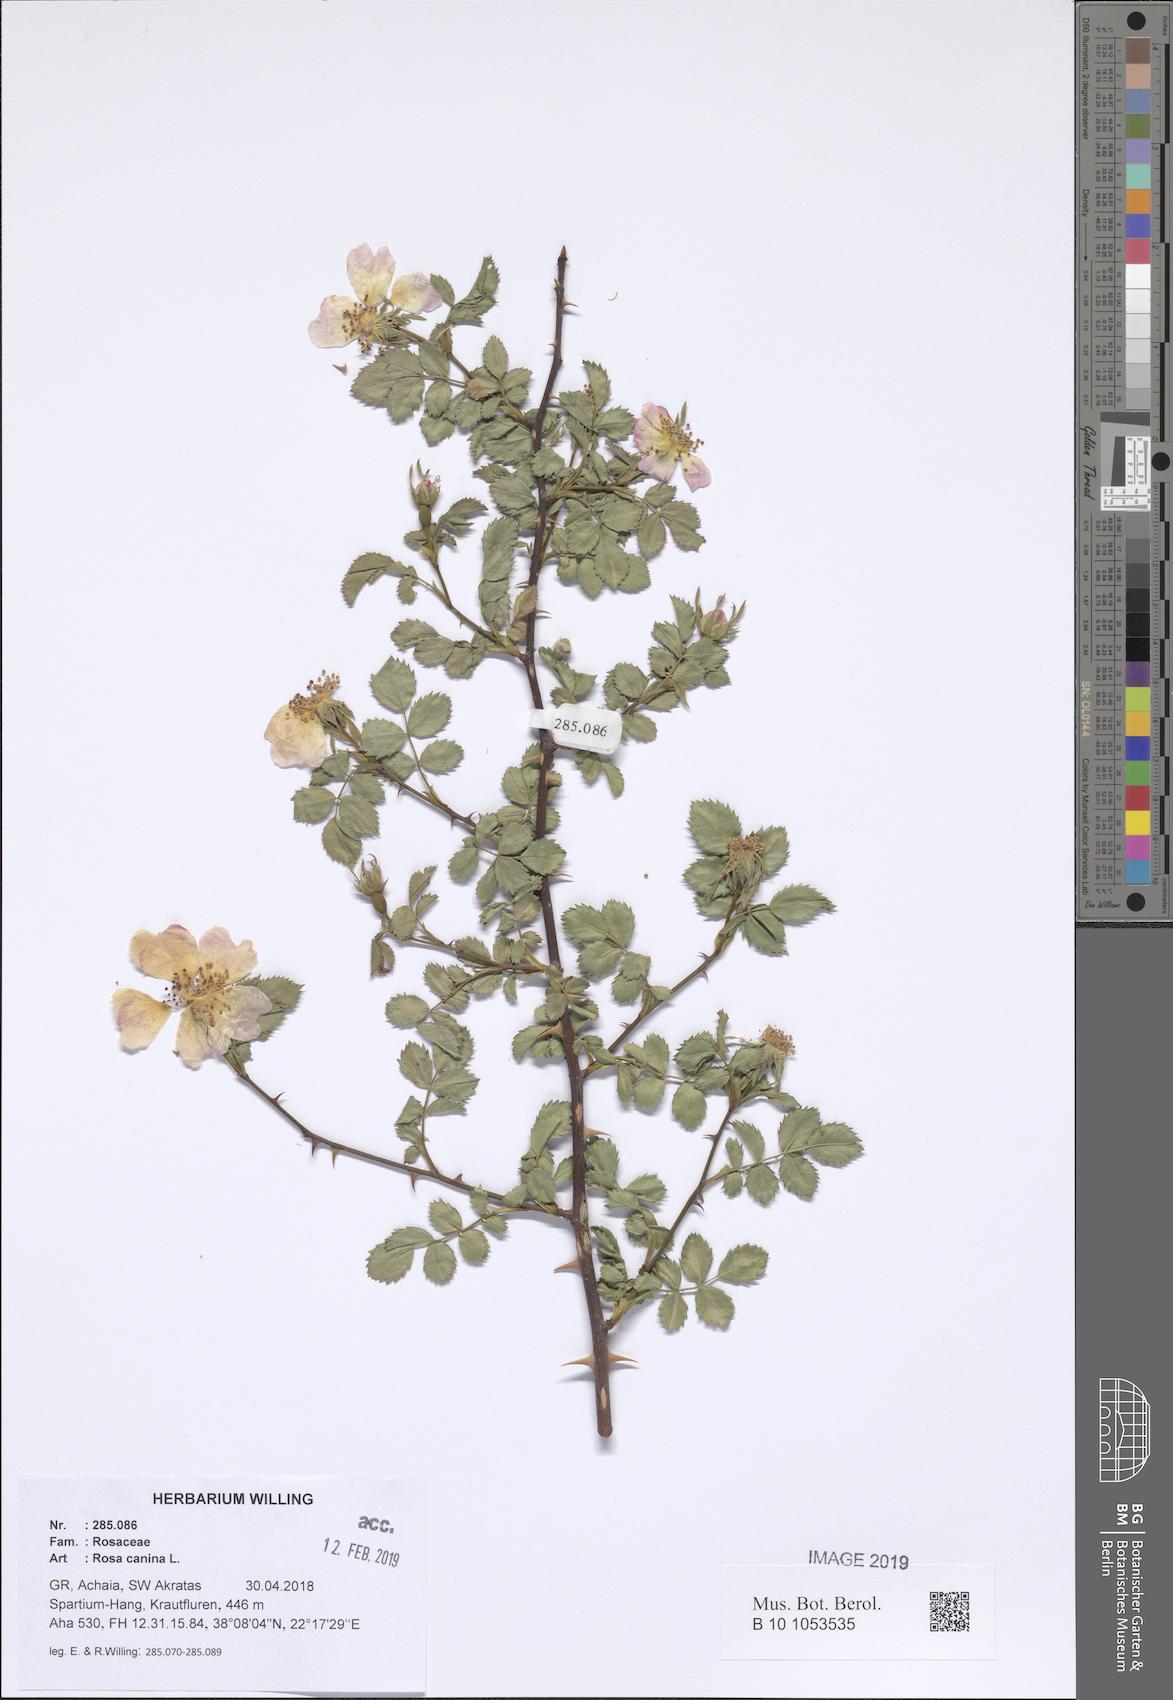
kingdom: Plantae
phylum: Tracheophyta
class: Magnoliopsida
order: Rosales
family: Rosaceae
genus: Rosa
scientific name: Rosa canina
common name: Dog rose
